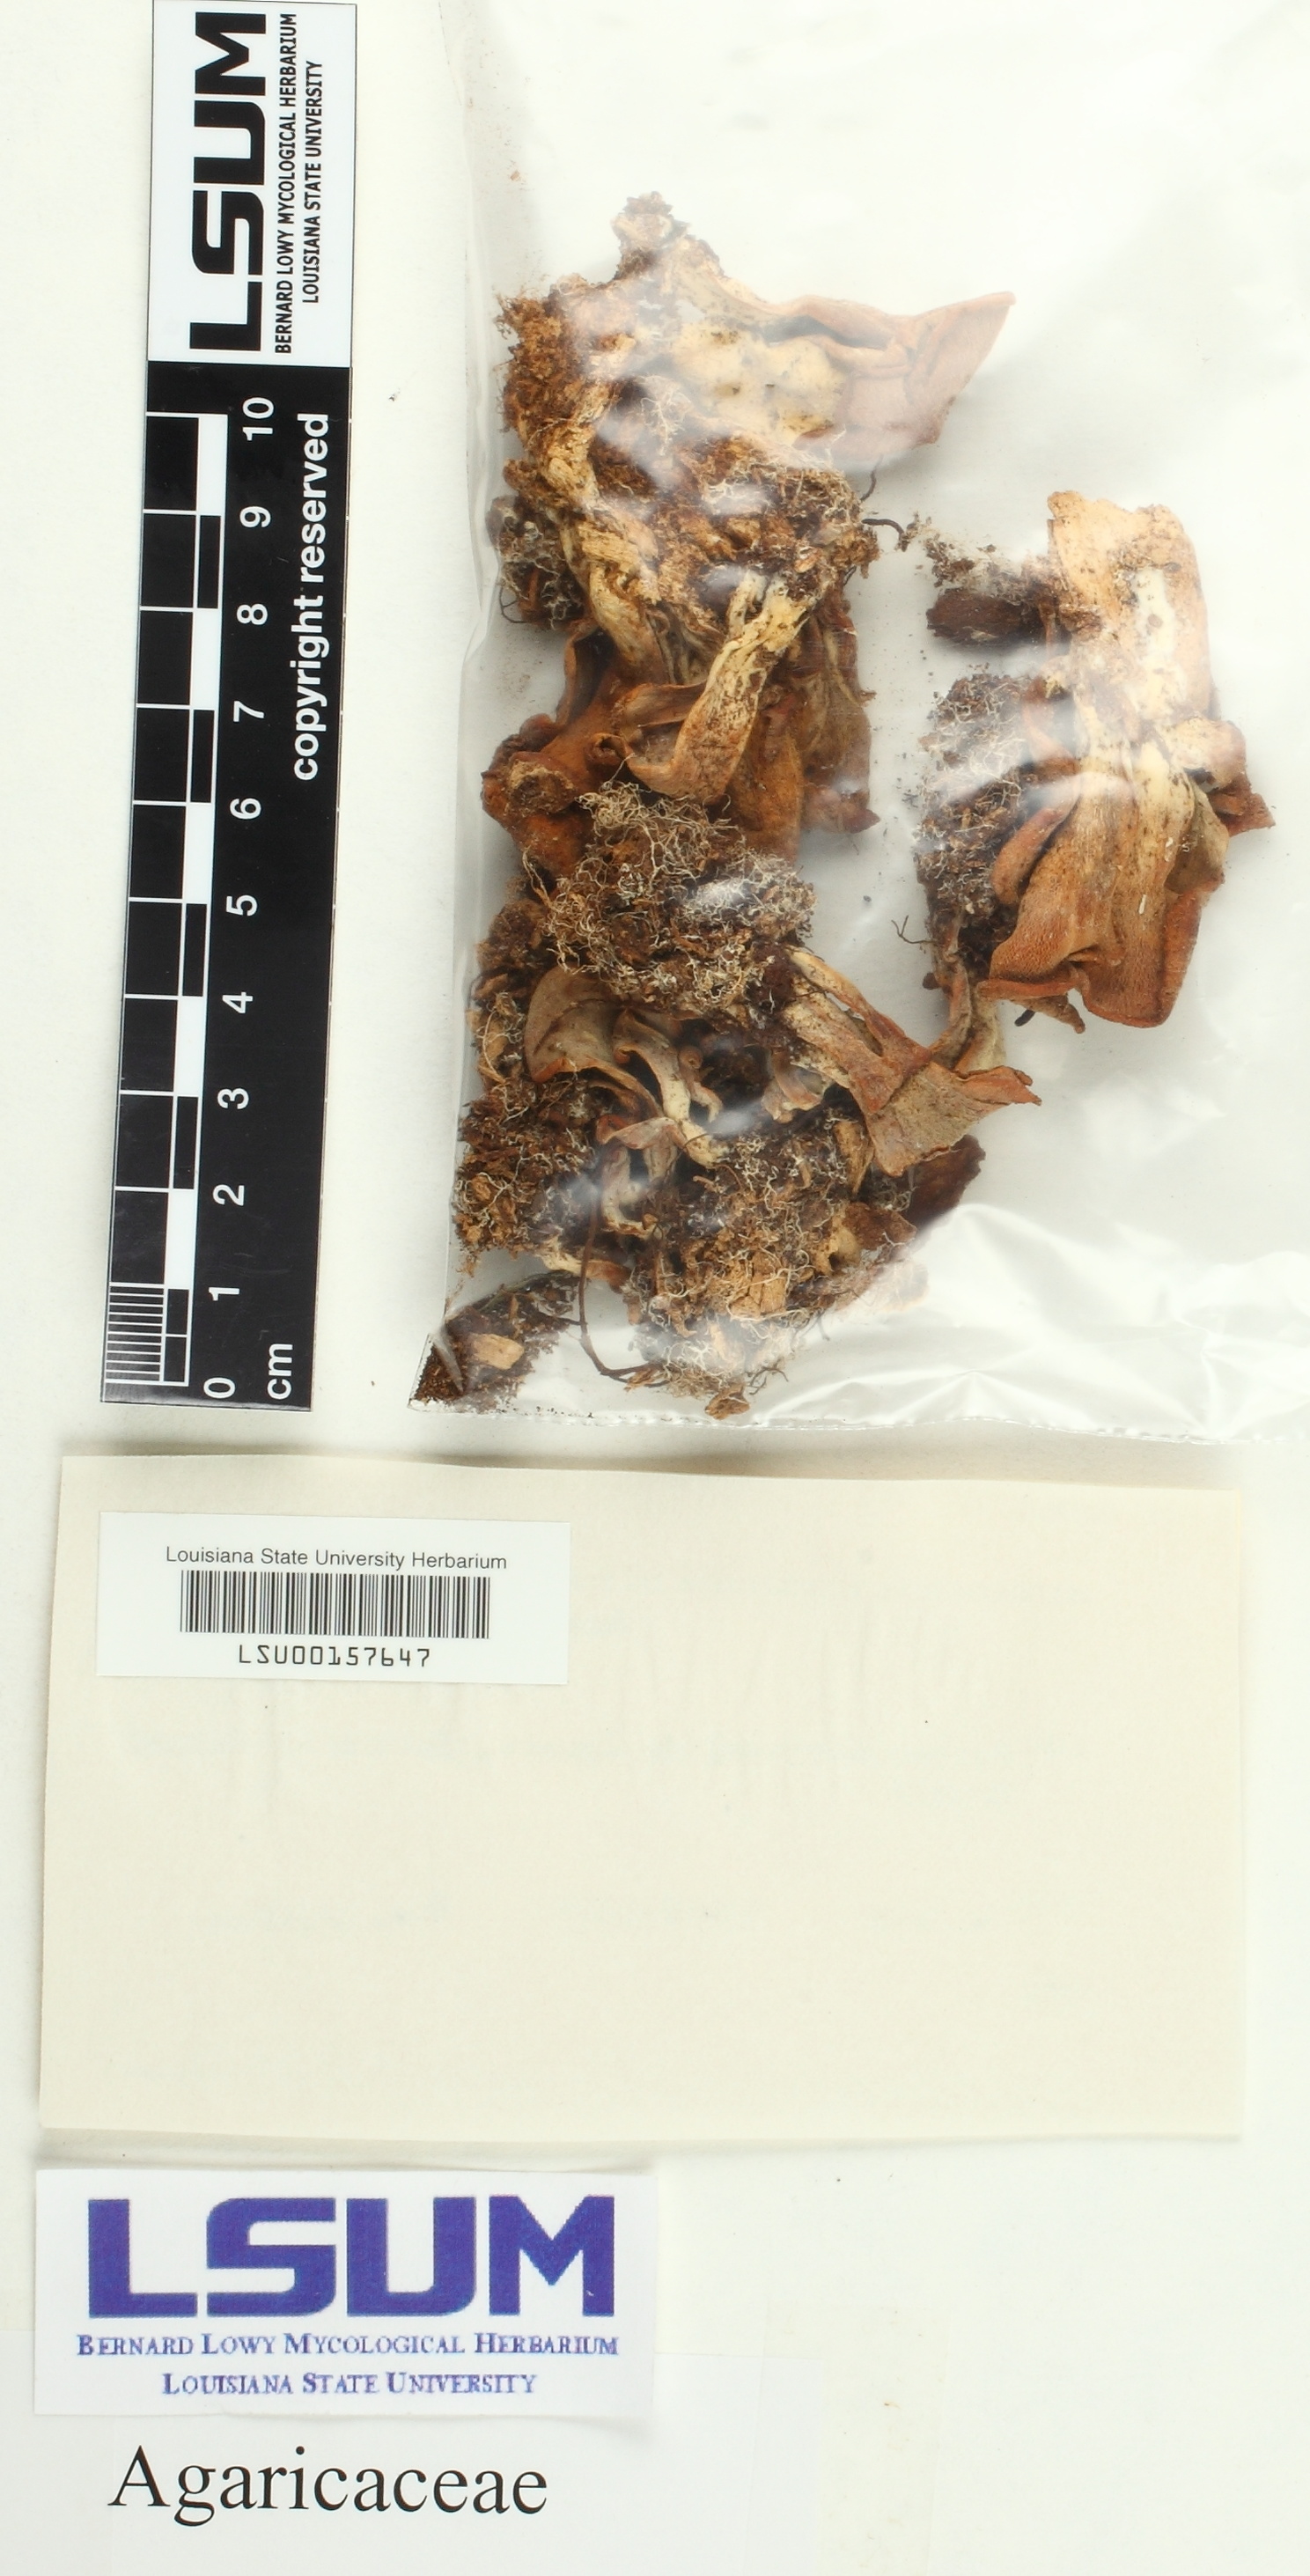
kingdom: Fungi
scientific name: Fungi
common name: Fungi
